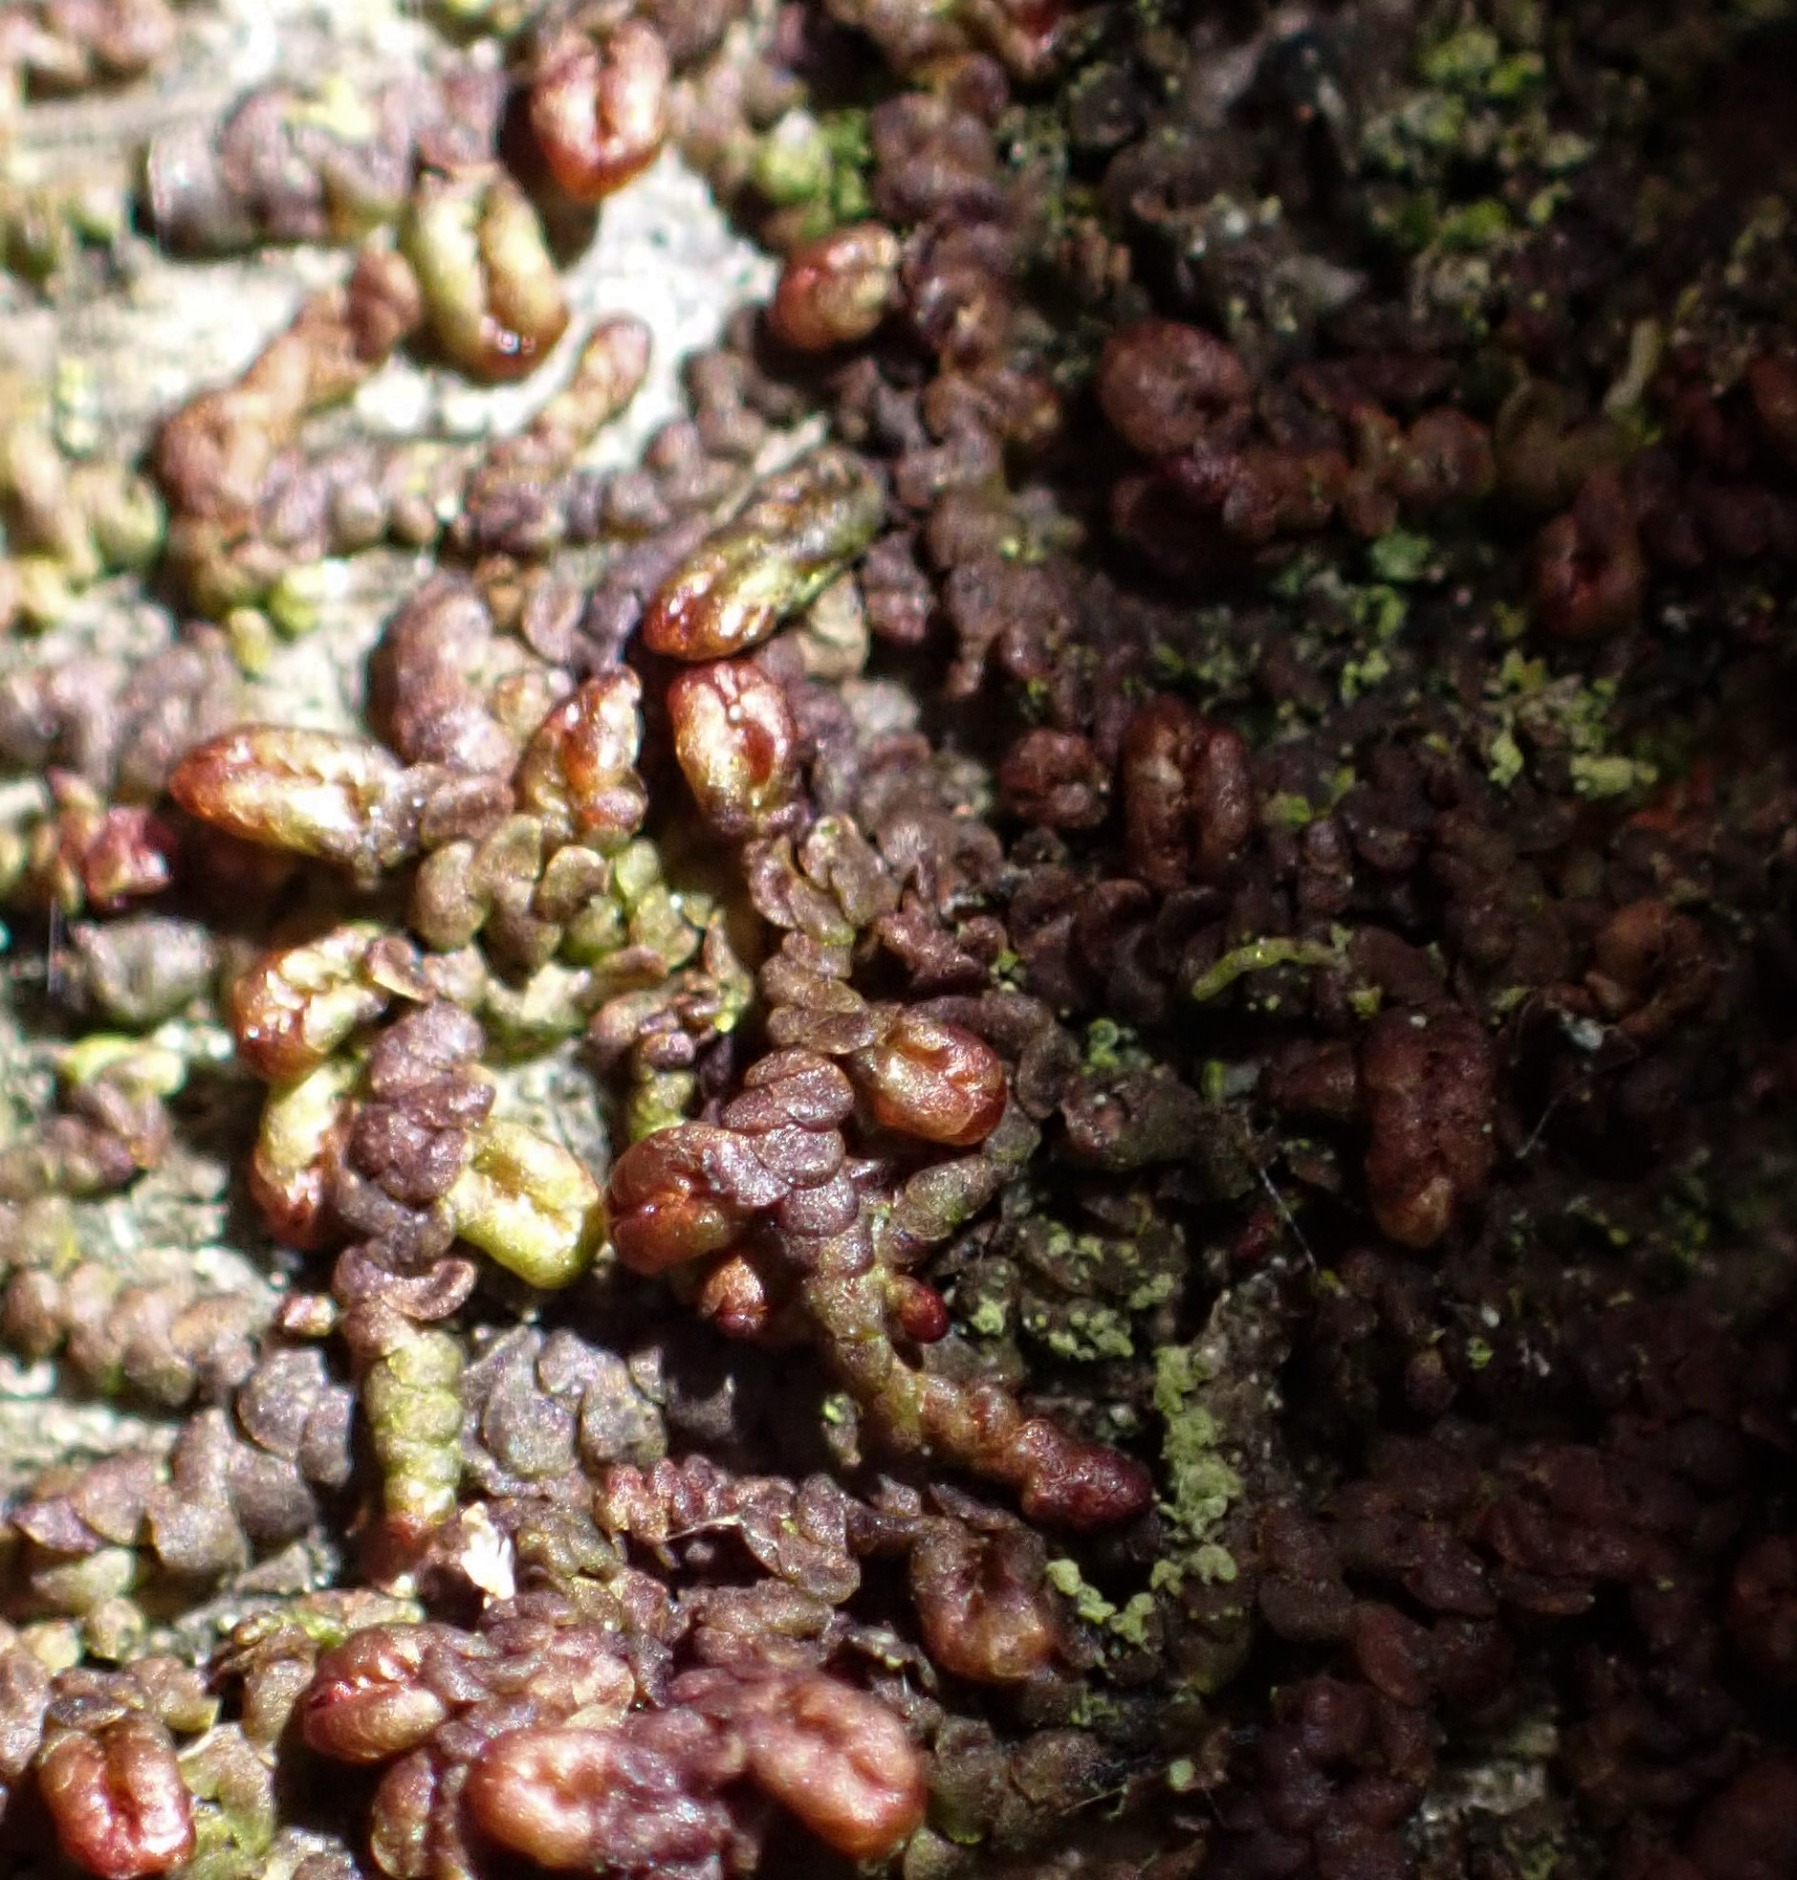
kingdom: Plantae
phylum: Marchantiophyta
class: Jungermanniopsida
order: Porellales
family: Frullaniaceae
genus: Frullania
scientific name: Frullania
